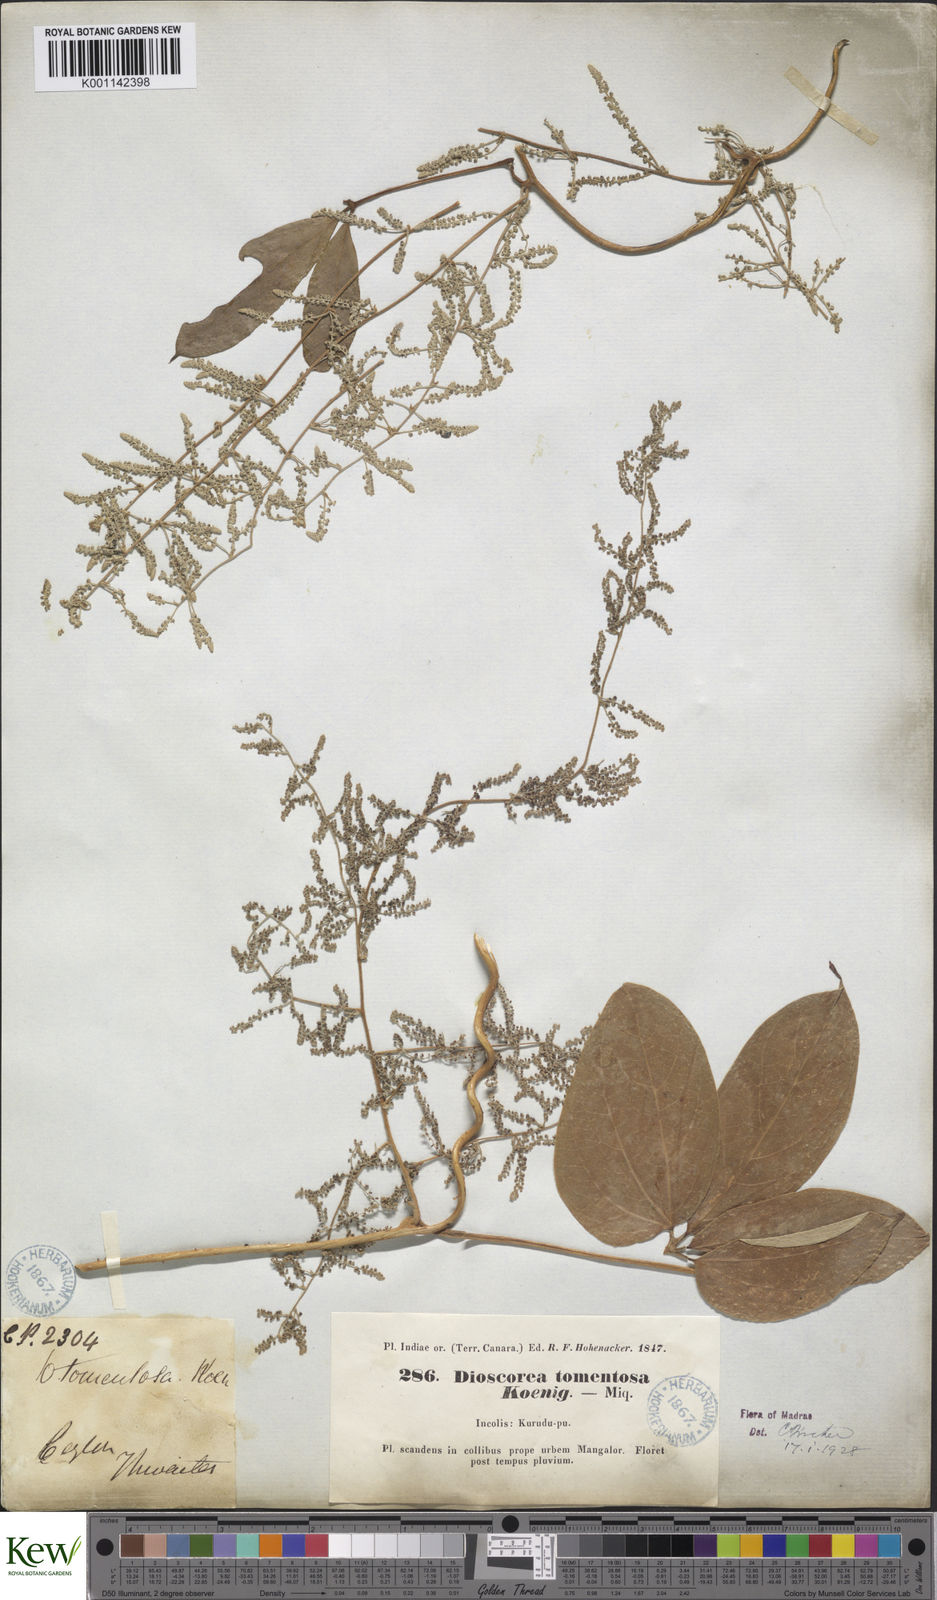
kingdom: Plantae
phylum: Tracheophyta
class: Liliopsida
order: Dioscoreales
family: Dioscoreaceae
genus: Dioscorea
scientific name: Dioscorea
